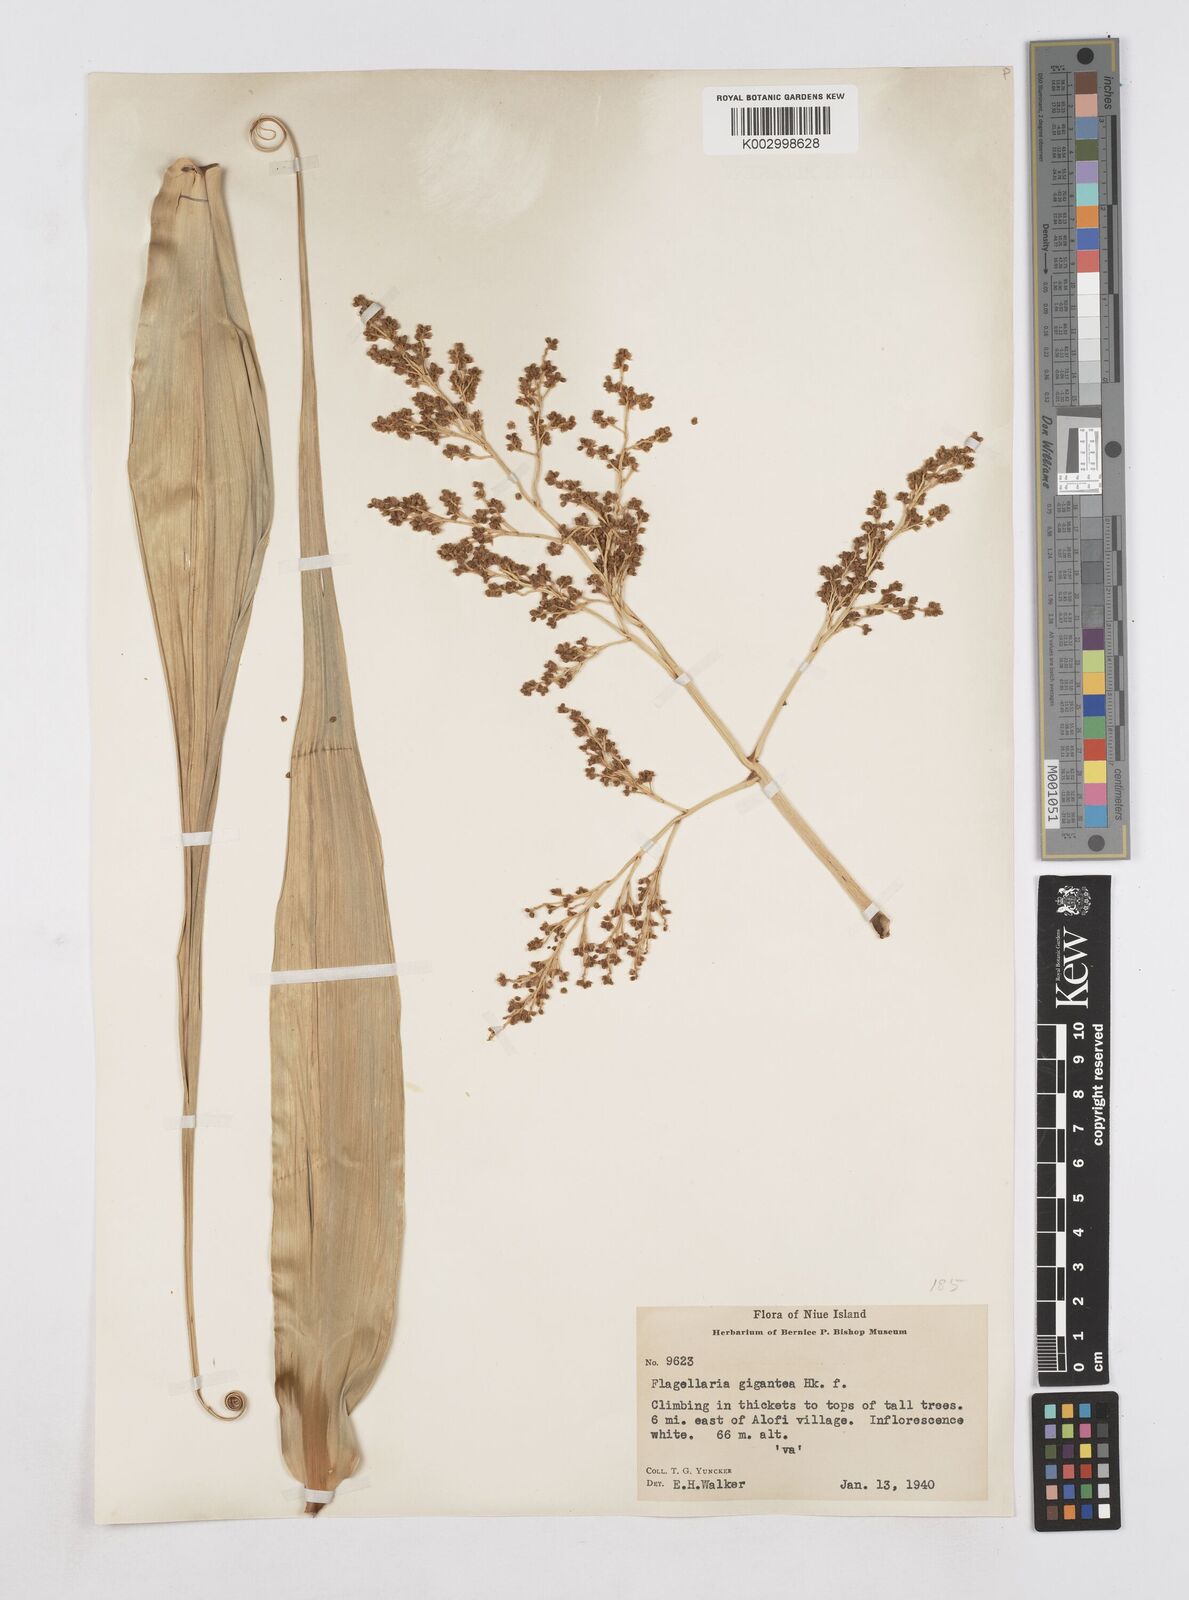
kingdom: Plantae
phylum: Tracheophyta
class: Liliopsida
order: Poales
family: Flagellariaceae
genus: Flagellaria
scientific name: Flagellaria gigantea
